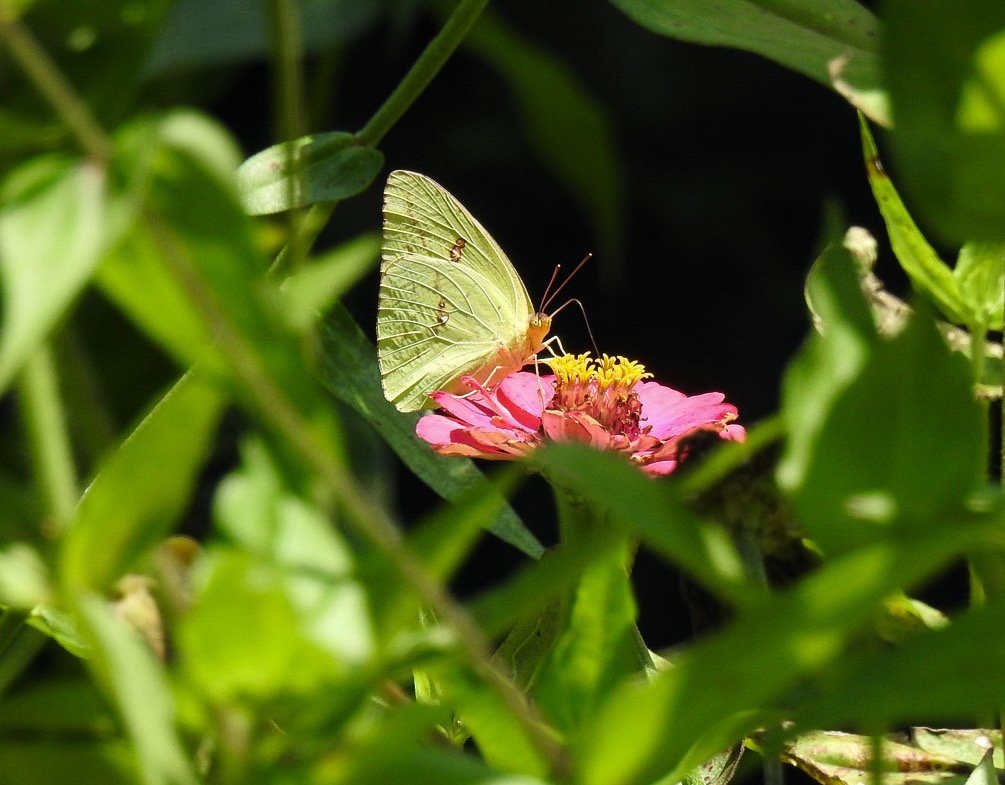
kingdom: Animalia
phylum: Arthropoda
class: Insecta
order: Lepidoptera
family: Pieridae
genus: Phoebis
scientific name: Phoebis sennae
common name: Cloudless Sulphur
